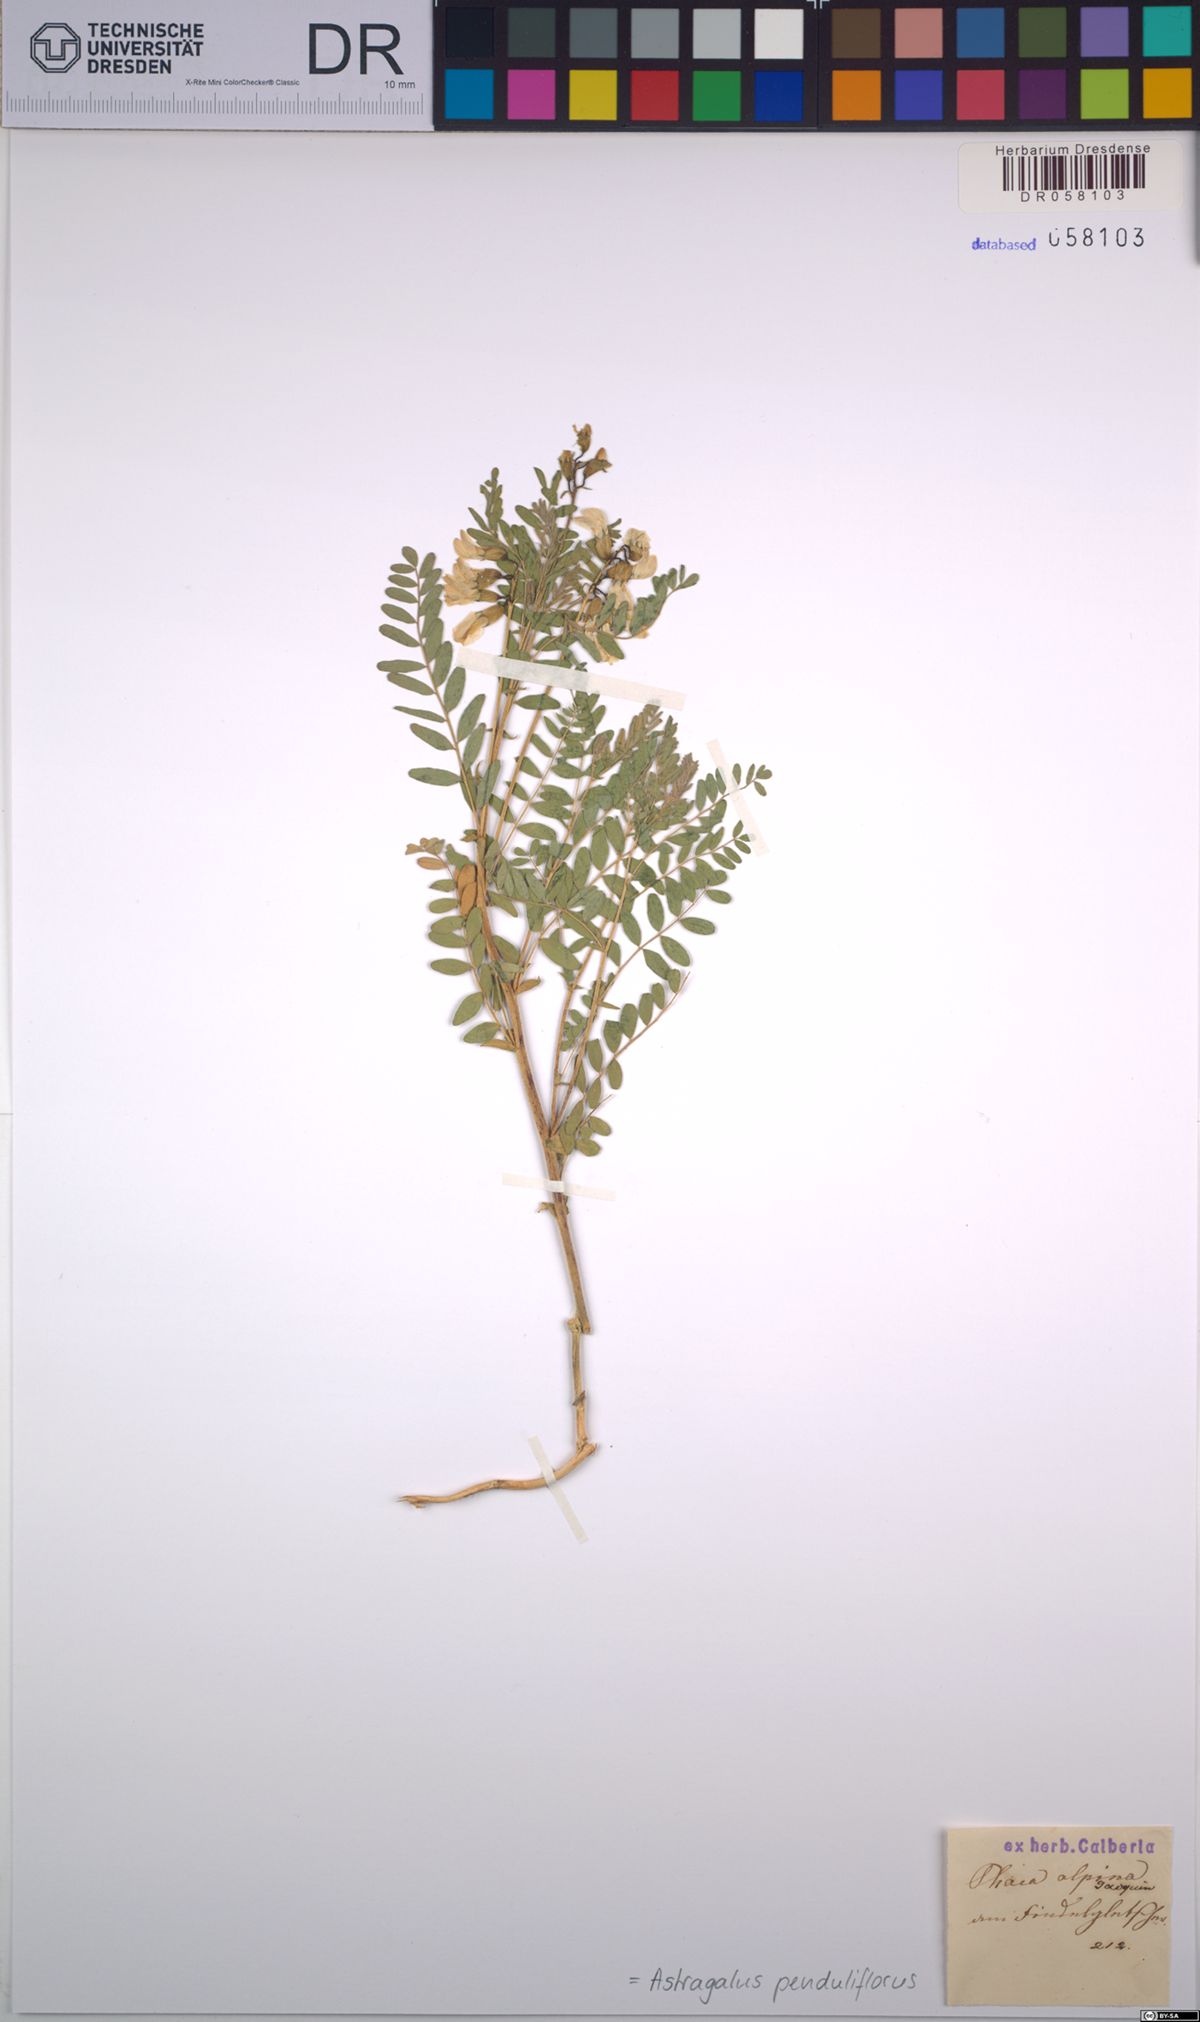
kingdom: Plantae
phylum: Tracheophyta
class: Magnoliopsida
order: Fabales
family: Fabaceae
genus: Astragalus
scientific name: Astragalus penduliflorus
